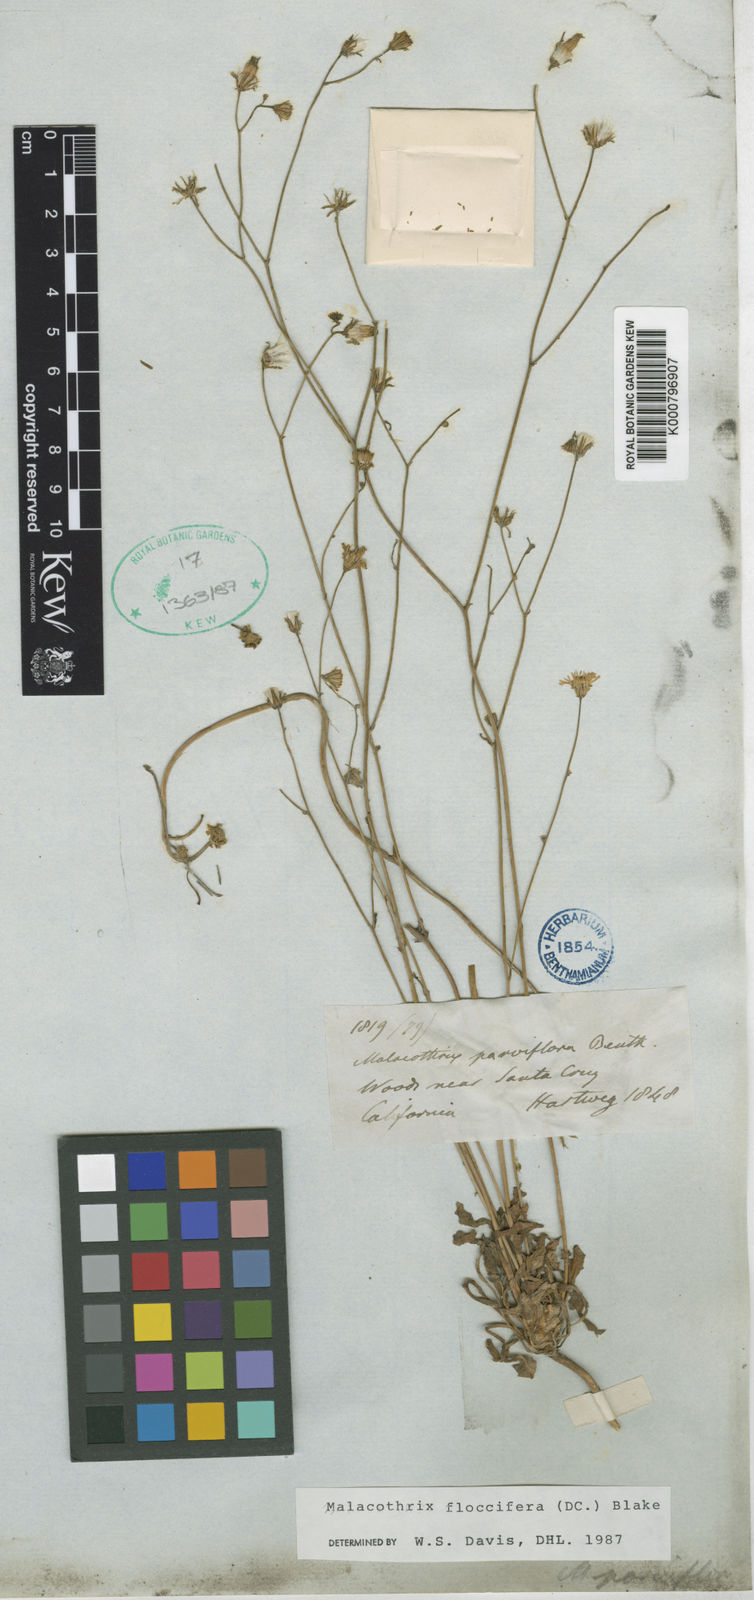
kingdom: Plantae
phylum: Tracheophyta
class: Magnoliopsida
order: Asterales
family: Asteraceae
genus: Malacothrix
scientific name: Malacothrix floccifera
